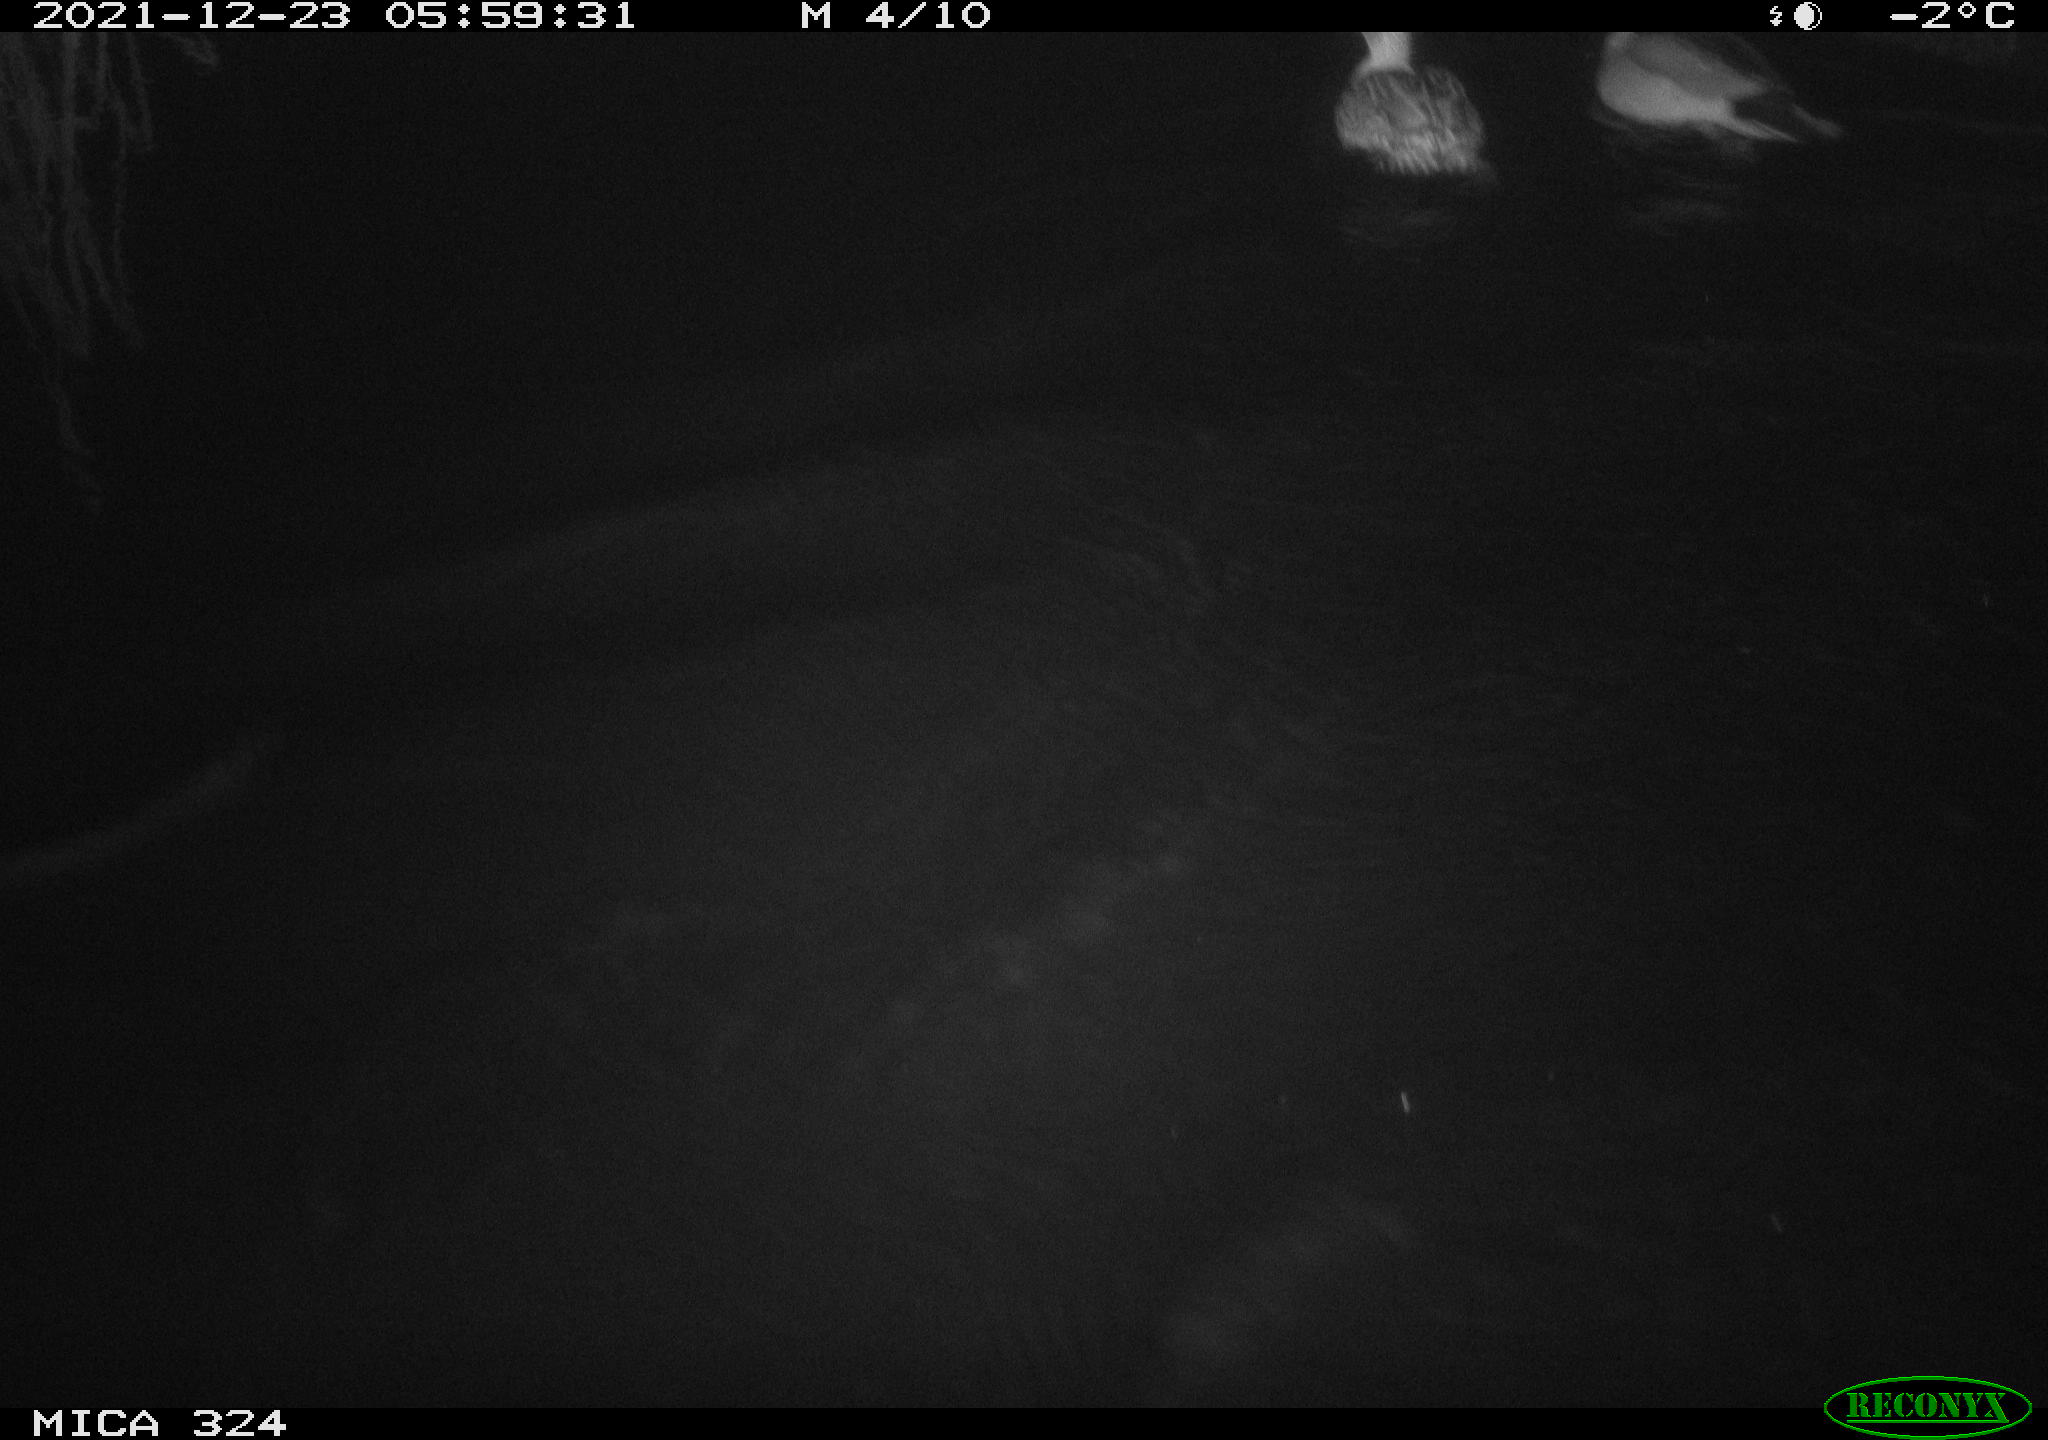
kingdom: Animalia
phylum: Chordata
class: Aves
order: Anseriformes
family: Anatidae
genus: Anas
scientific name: Anas platyrhynchos
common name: Mallard
